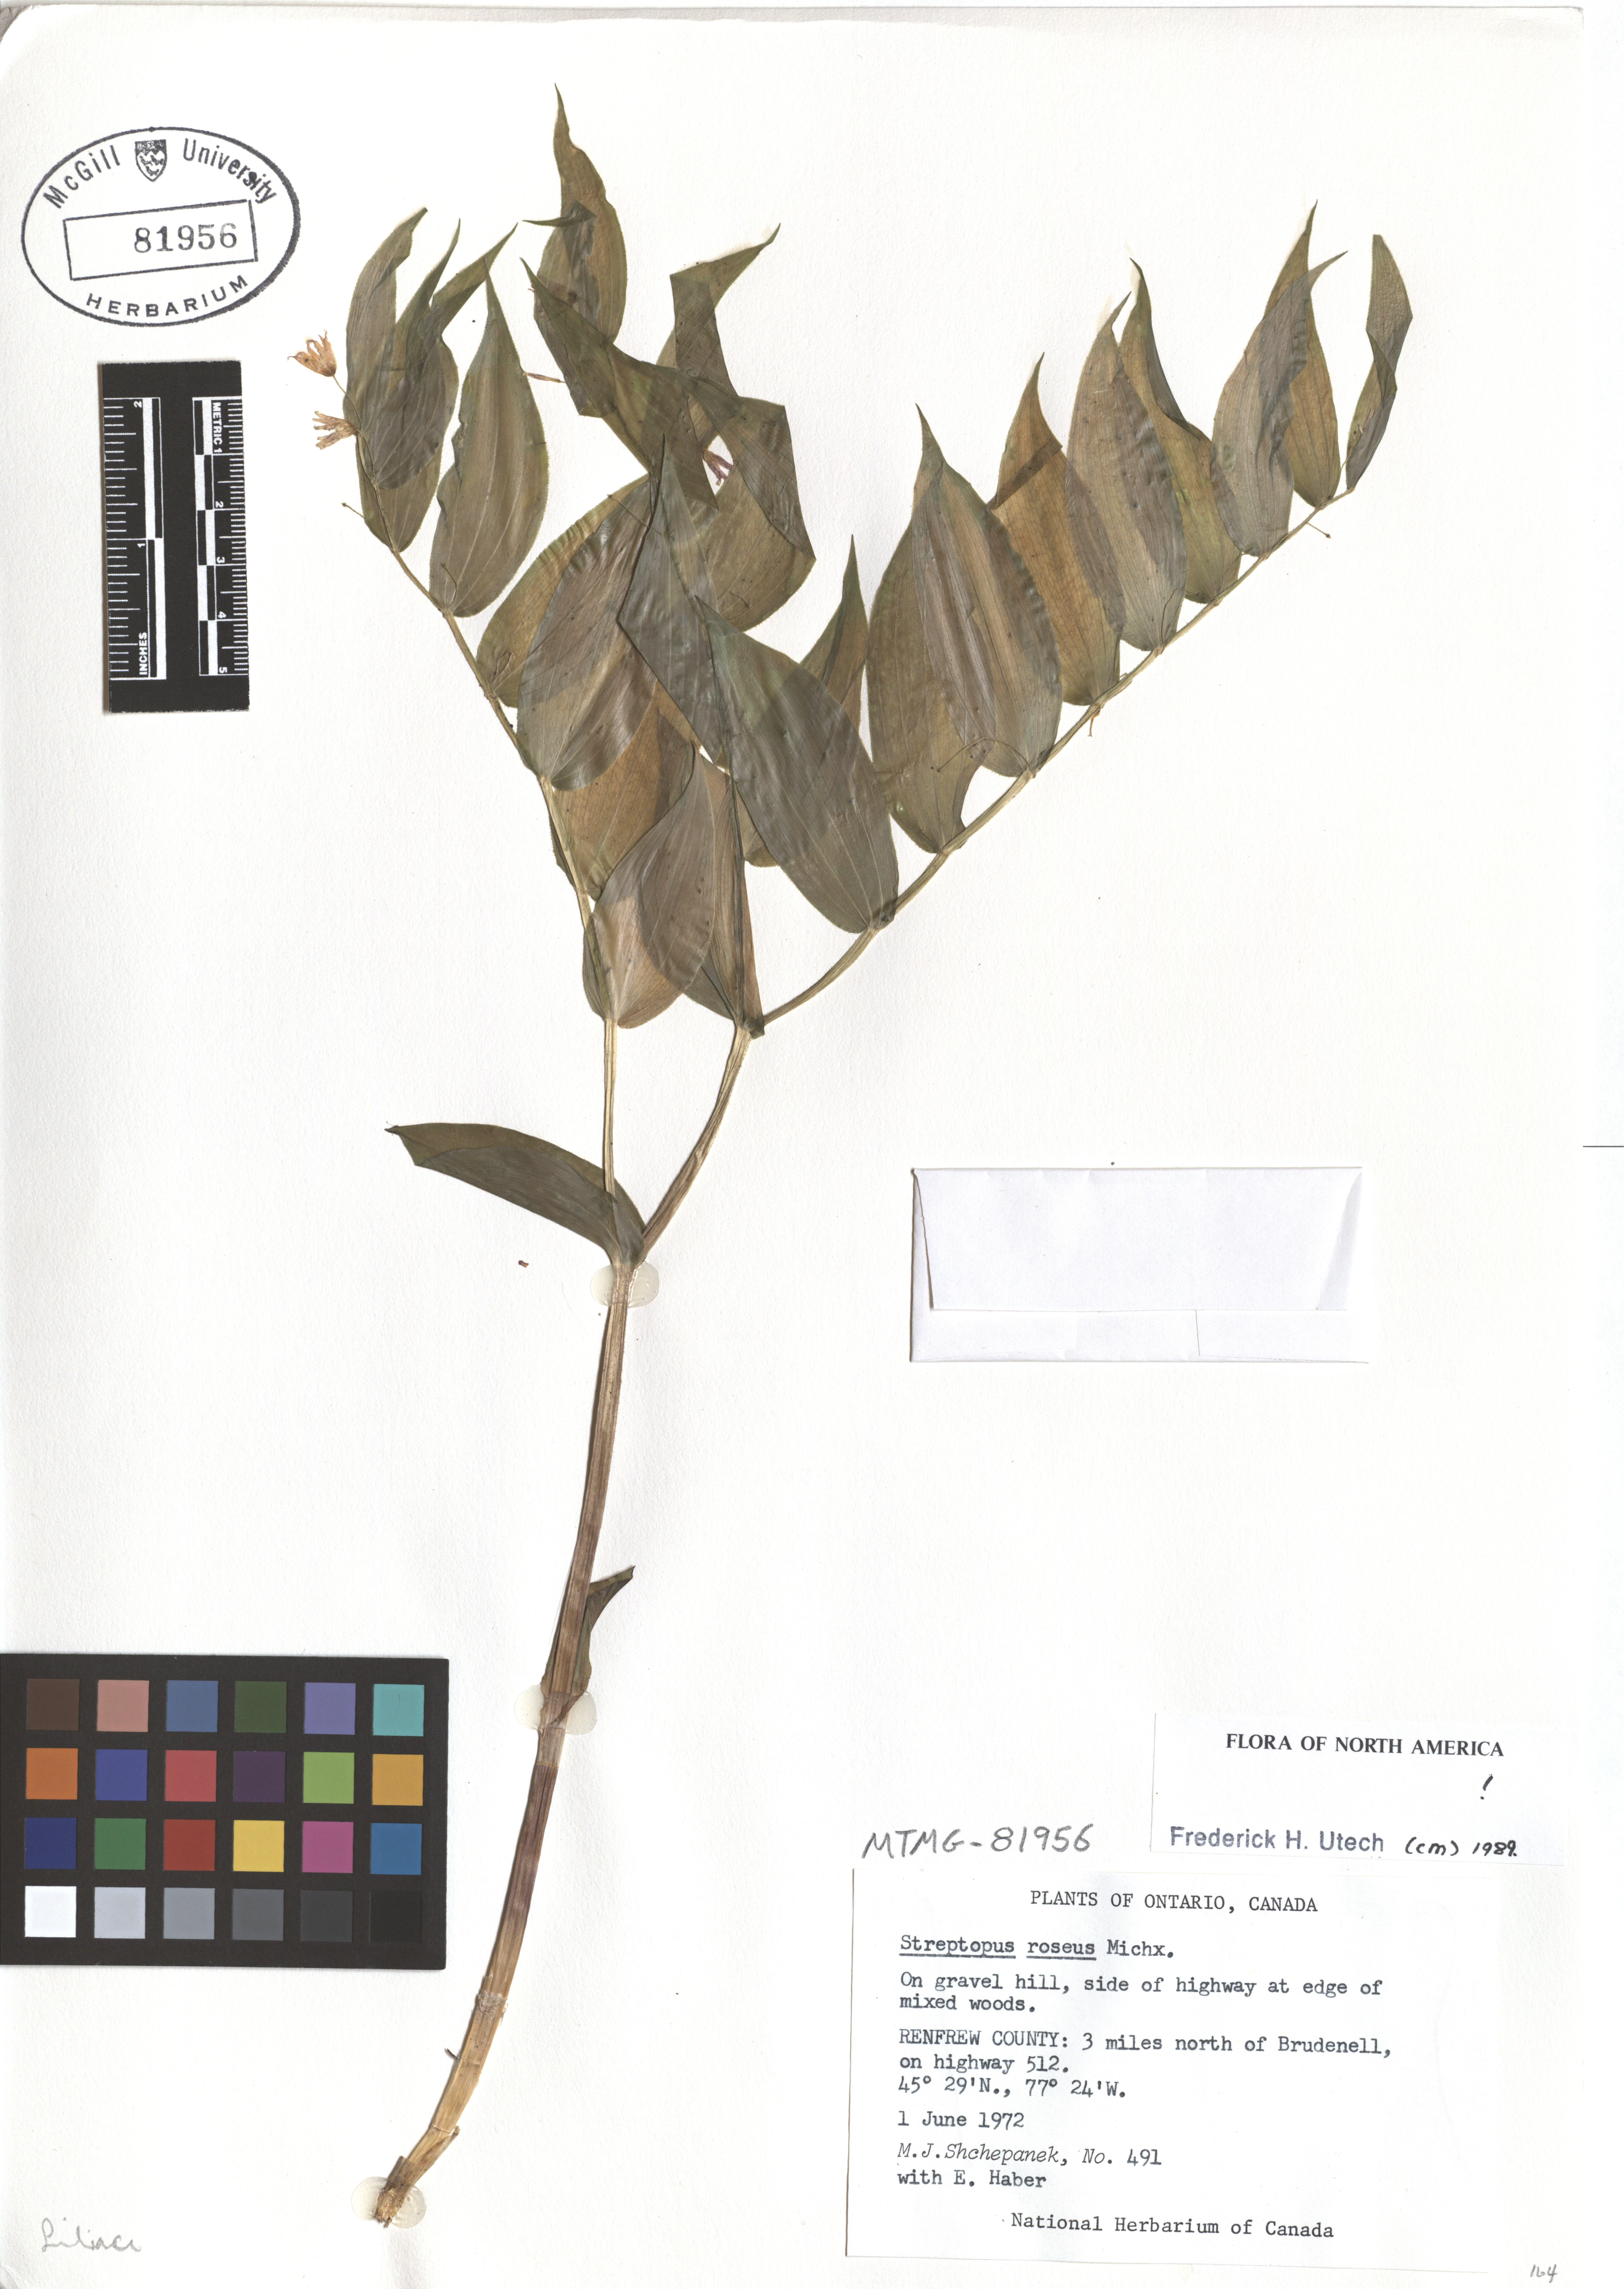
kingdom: Plantae
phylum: Tracheophyta
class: Liliopsida
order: Liliales
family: Liliaceae
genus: Streptopus
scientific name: Streptopus lanceolatus
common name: Rose mandarin
